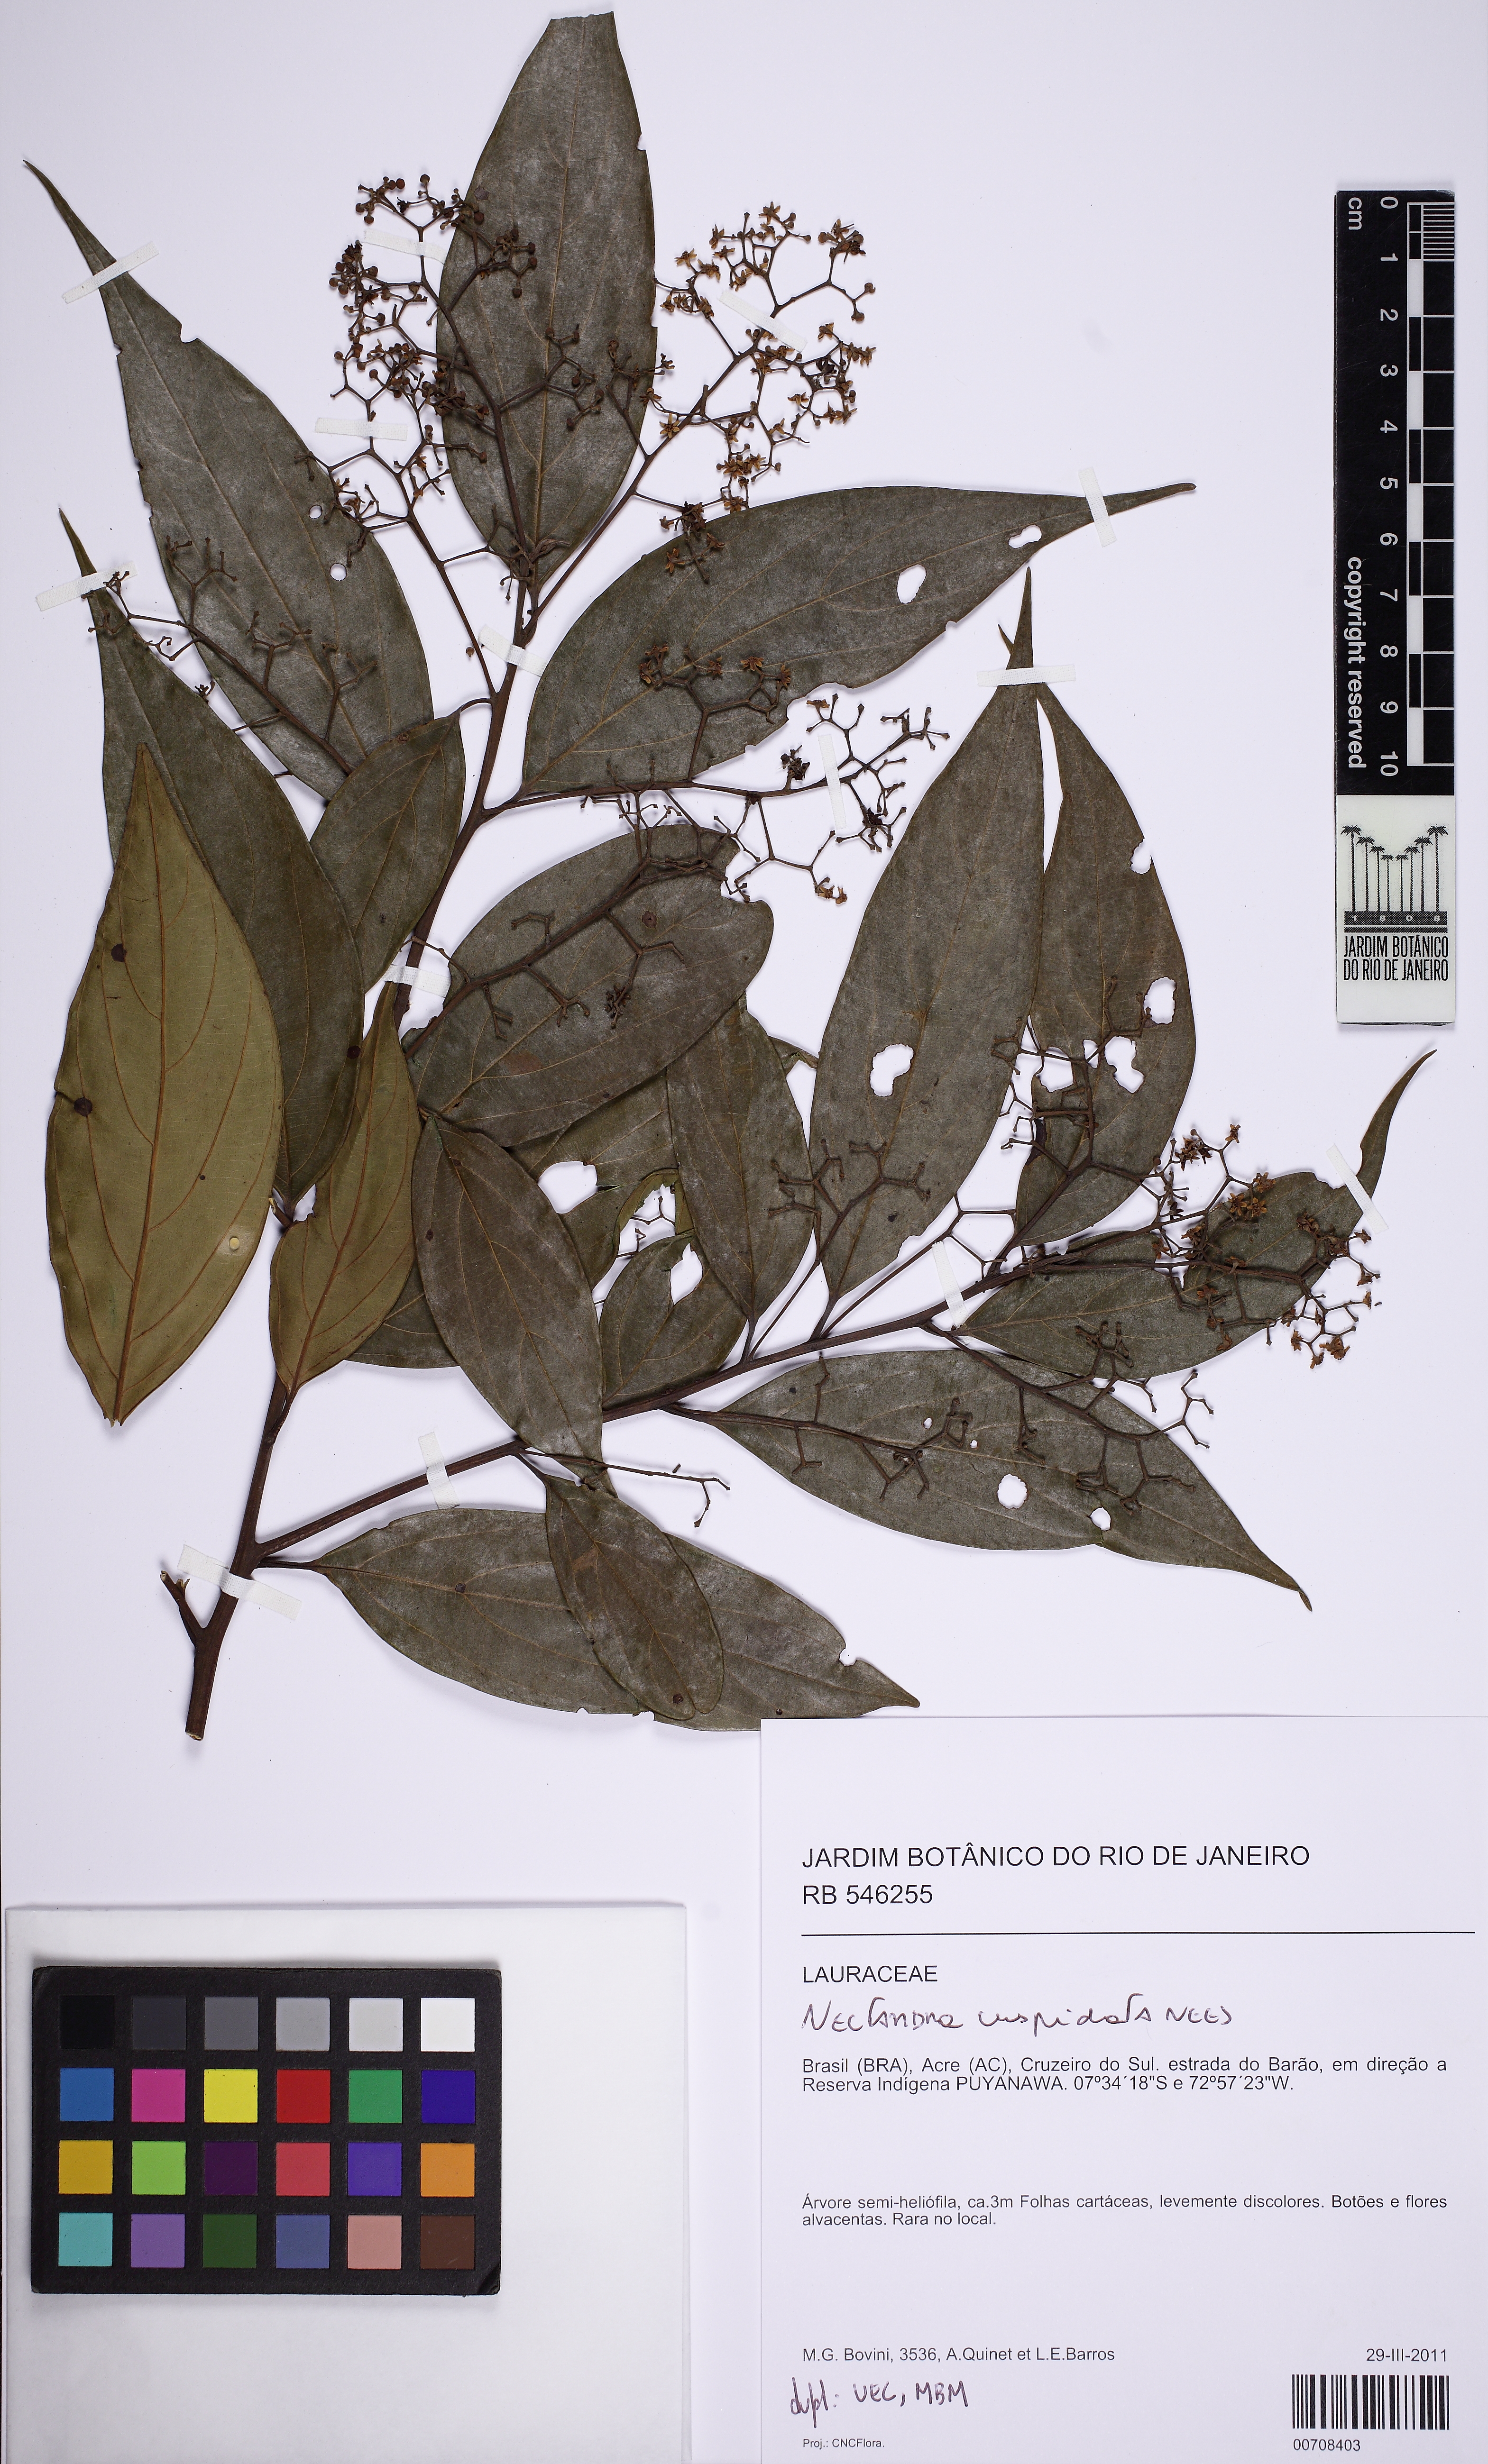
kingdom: Plantae
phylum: Tracheophyta
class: Magnoliopsida
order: Laurales
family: Lauraceae
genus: Nectandra
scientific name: Nectandra cuspidata
